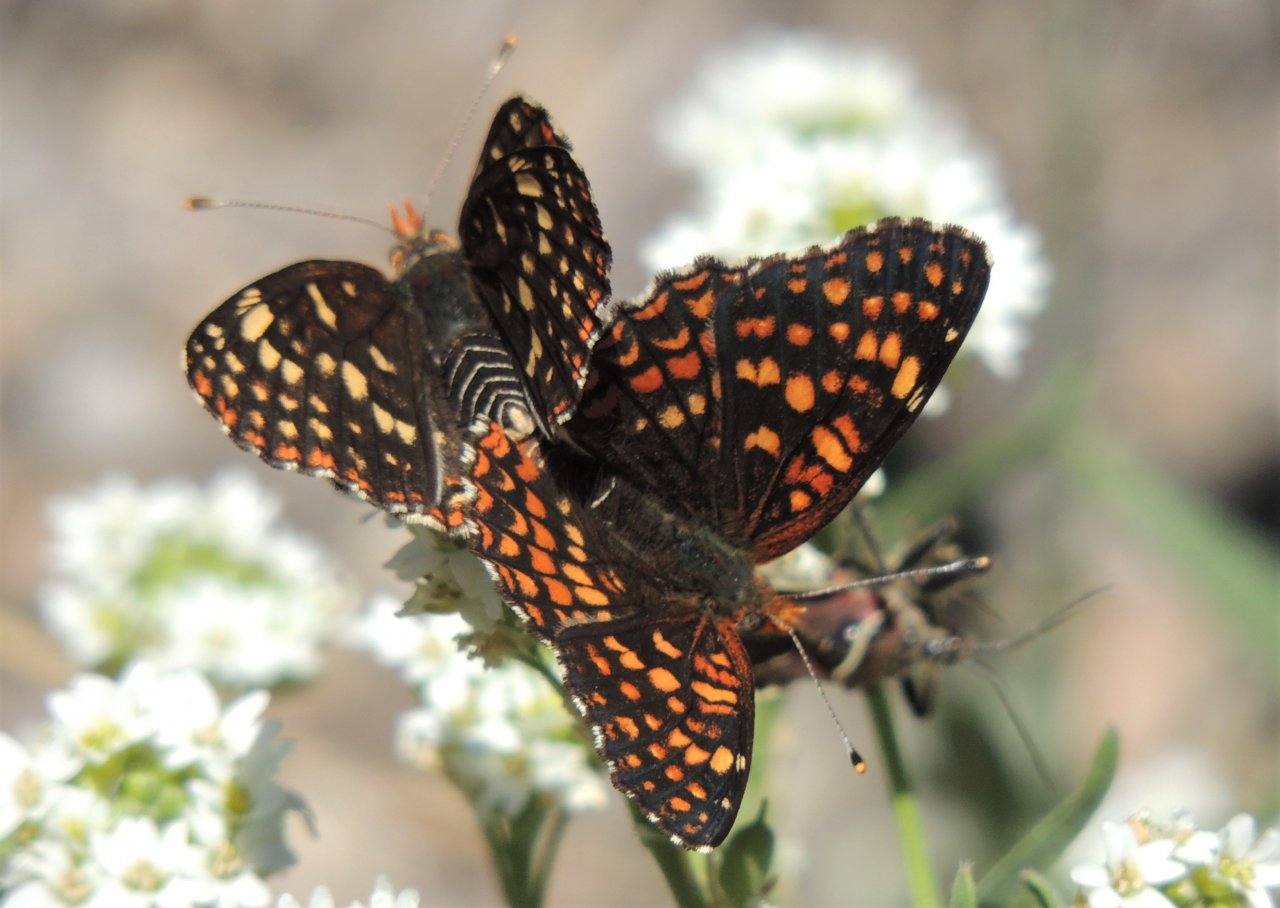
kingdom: Animalia
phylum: Arthropoda
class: Insecta
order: Lepidoptera
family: Nymphalidae
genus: Chlosyne
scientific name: Chlosyne palla
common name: Northern Checkerspot
